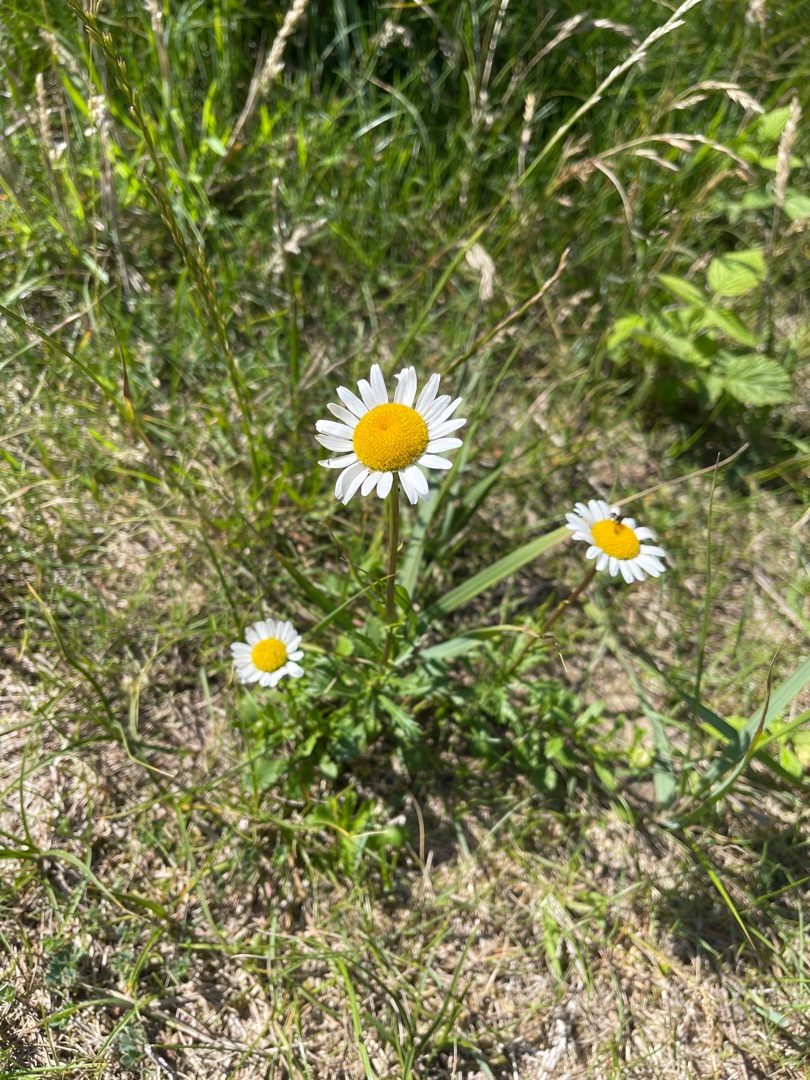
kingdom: Plantae
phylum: Tracheophyta
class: Magnoliopsida
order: Asterales
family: Asteraceae
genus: Leucanthemum
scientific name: Leucanthemum vulgare
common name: Hvid okseøje
